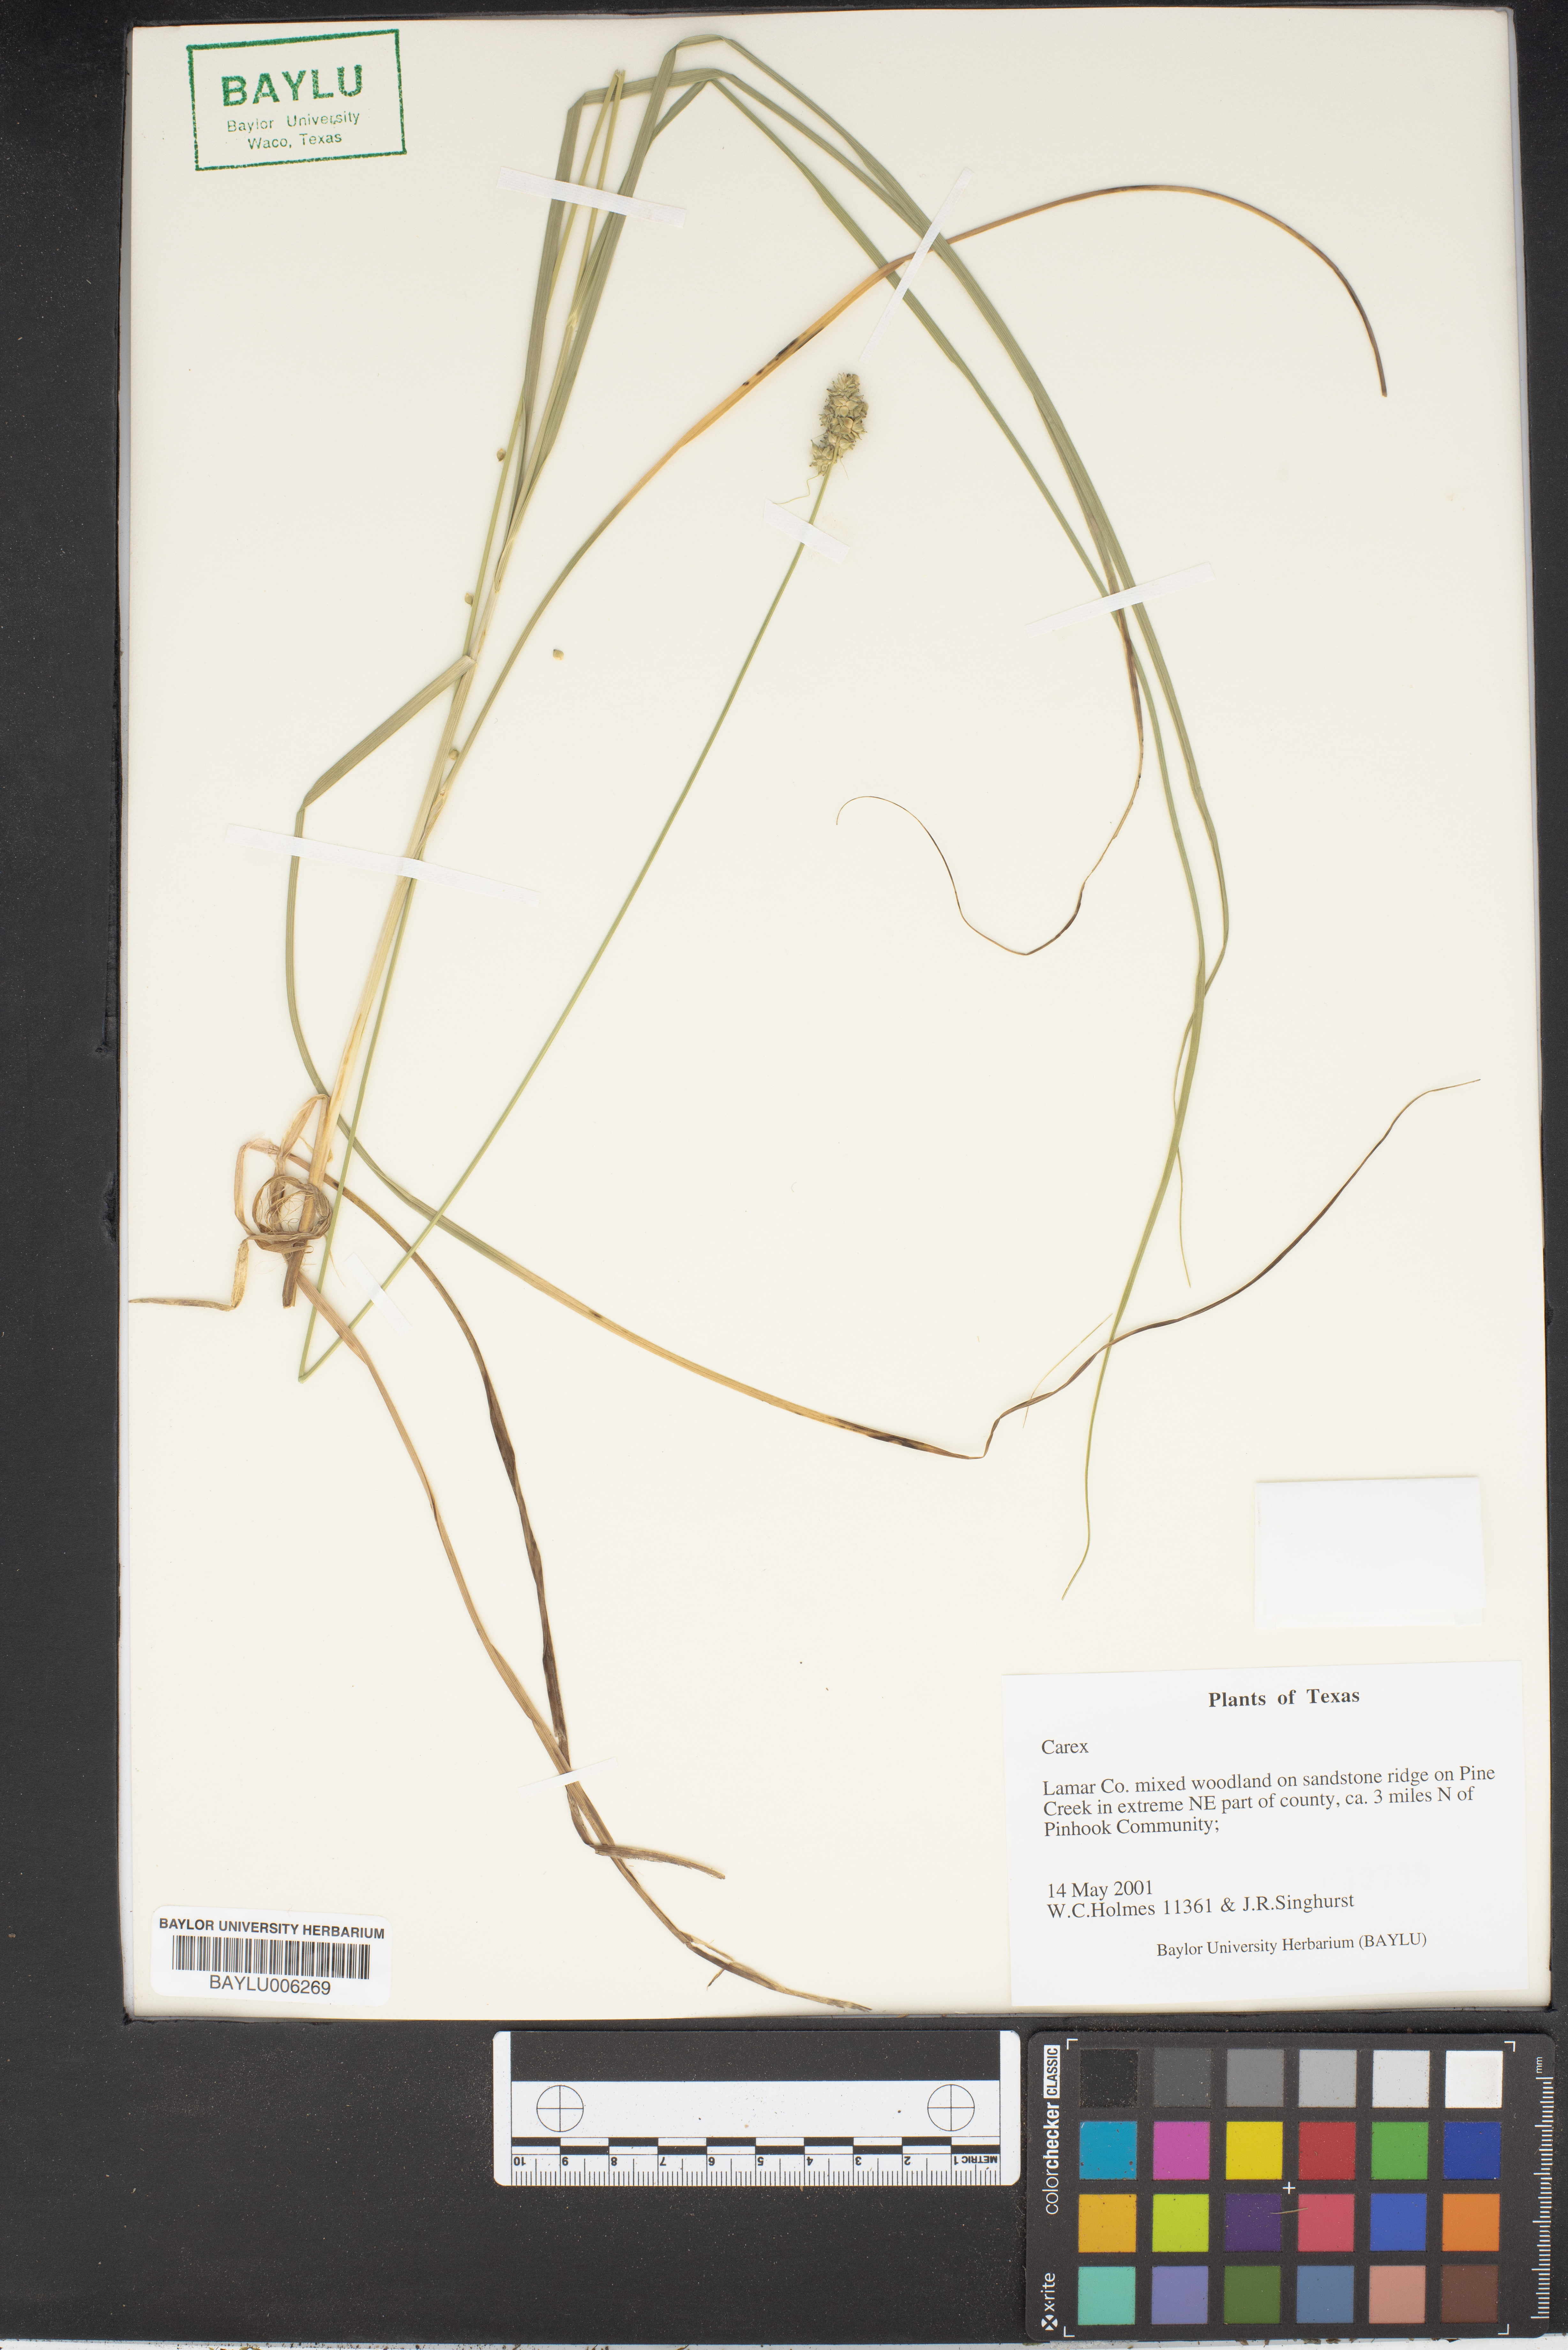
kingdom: Plantae
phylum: Tracheophyta
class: Liliopsida
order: Poales
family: Cyperaceae
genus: Carex
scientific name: Carex
